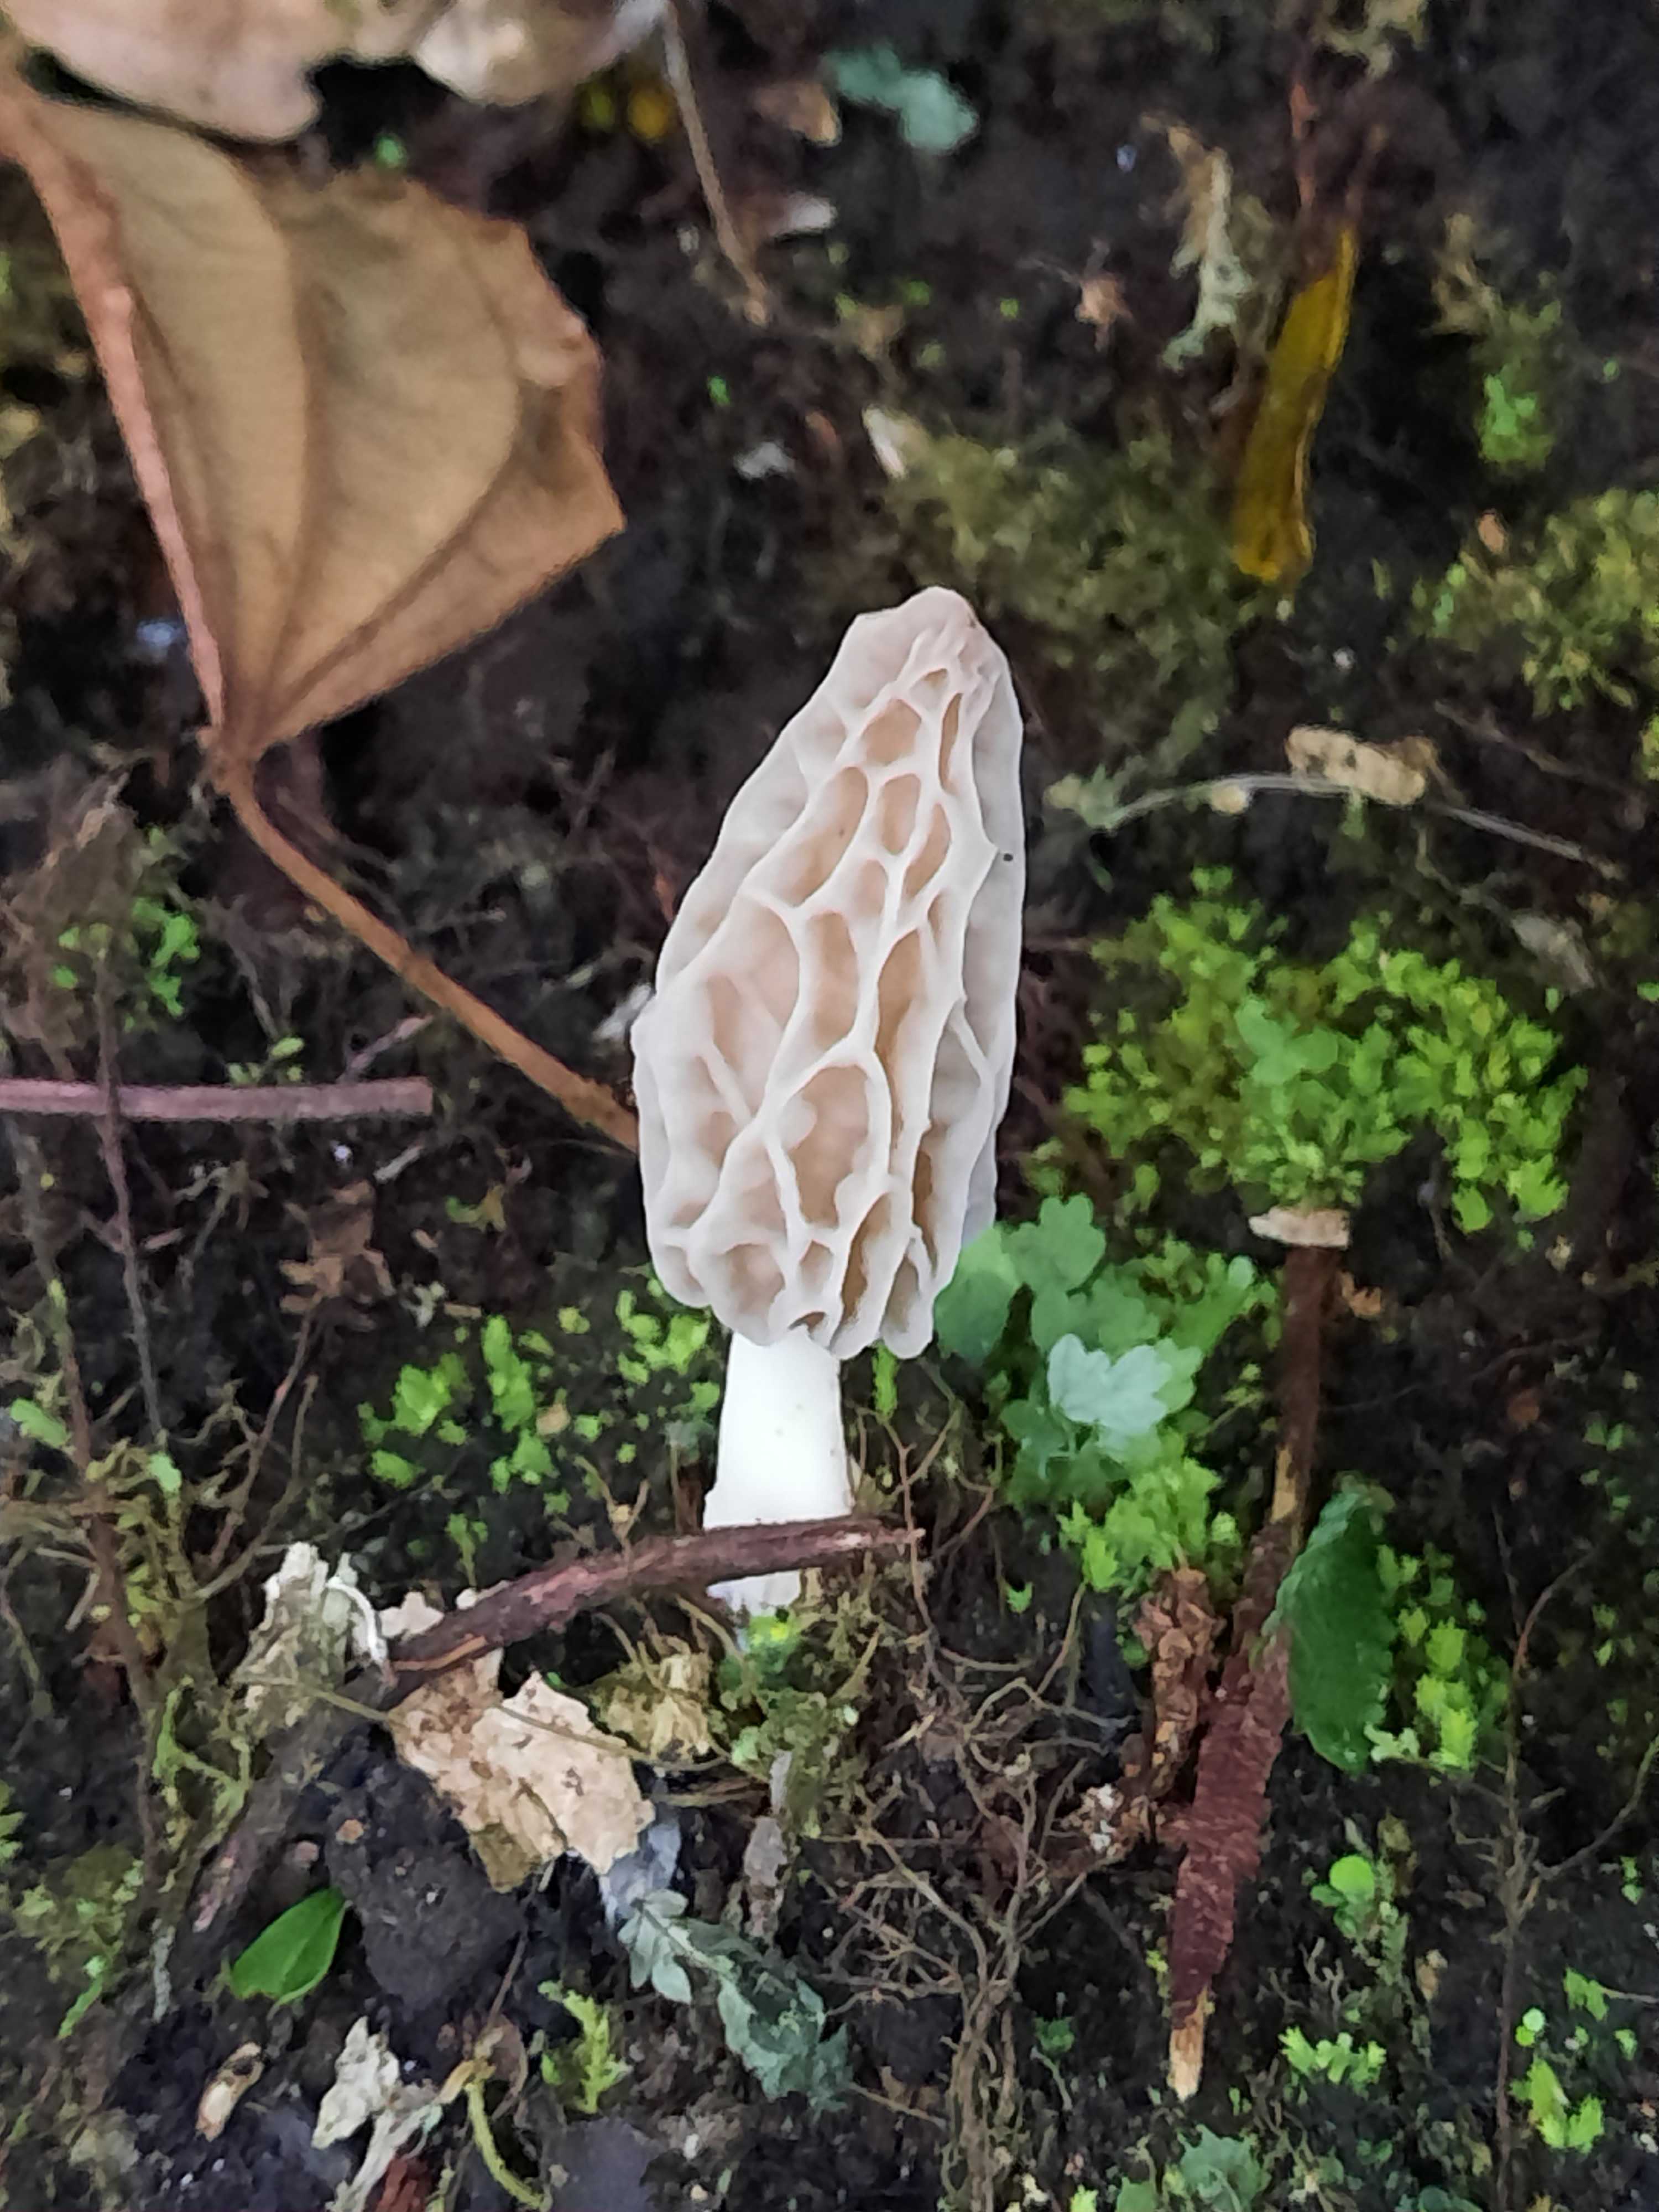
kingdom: Fungi
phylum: Ascomycota
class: Pezizomycetes
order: Pezizales
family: Morchellaceae
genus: Morchella
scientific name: Morchella
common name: morkel
